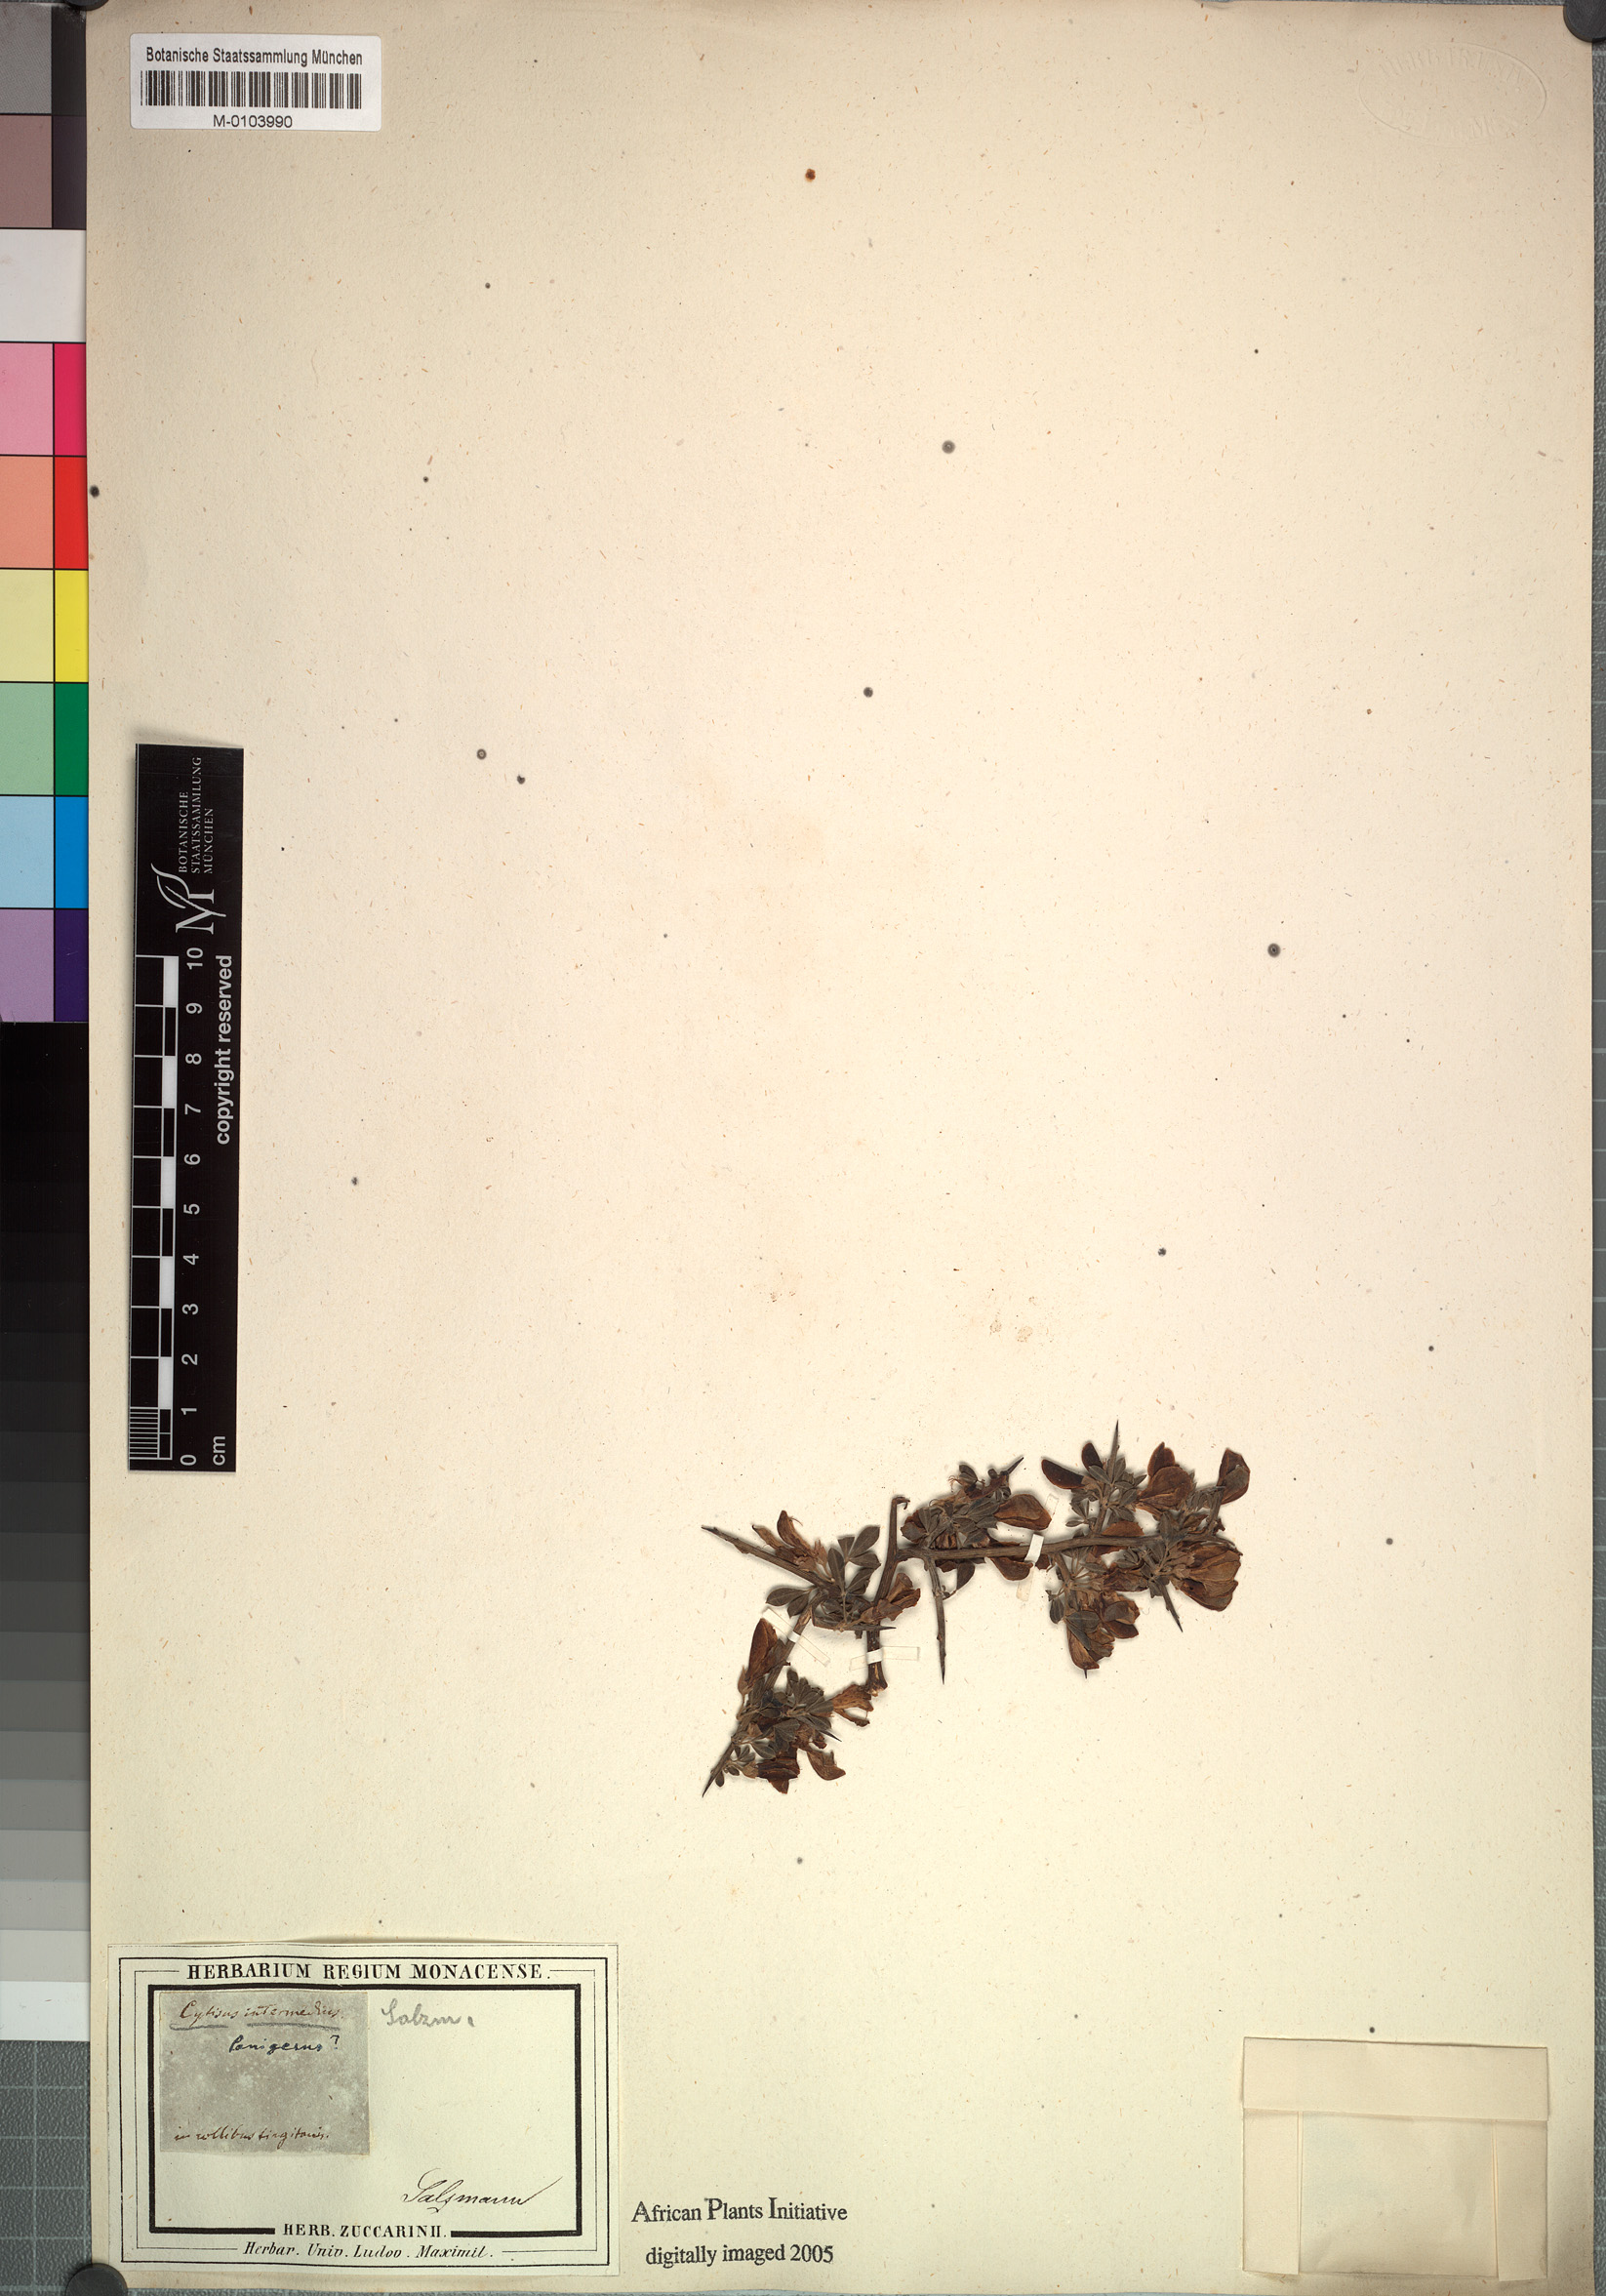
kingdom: Plantae
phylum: Tracheophyta
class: Magnoliopsida
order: Fabales
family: Fabaceae
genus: Calicotome
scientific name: Calicotome intermedia
